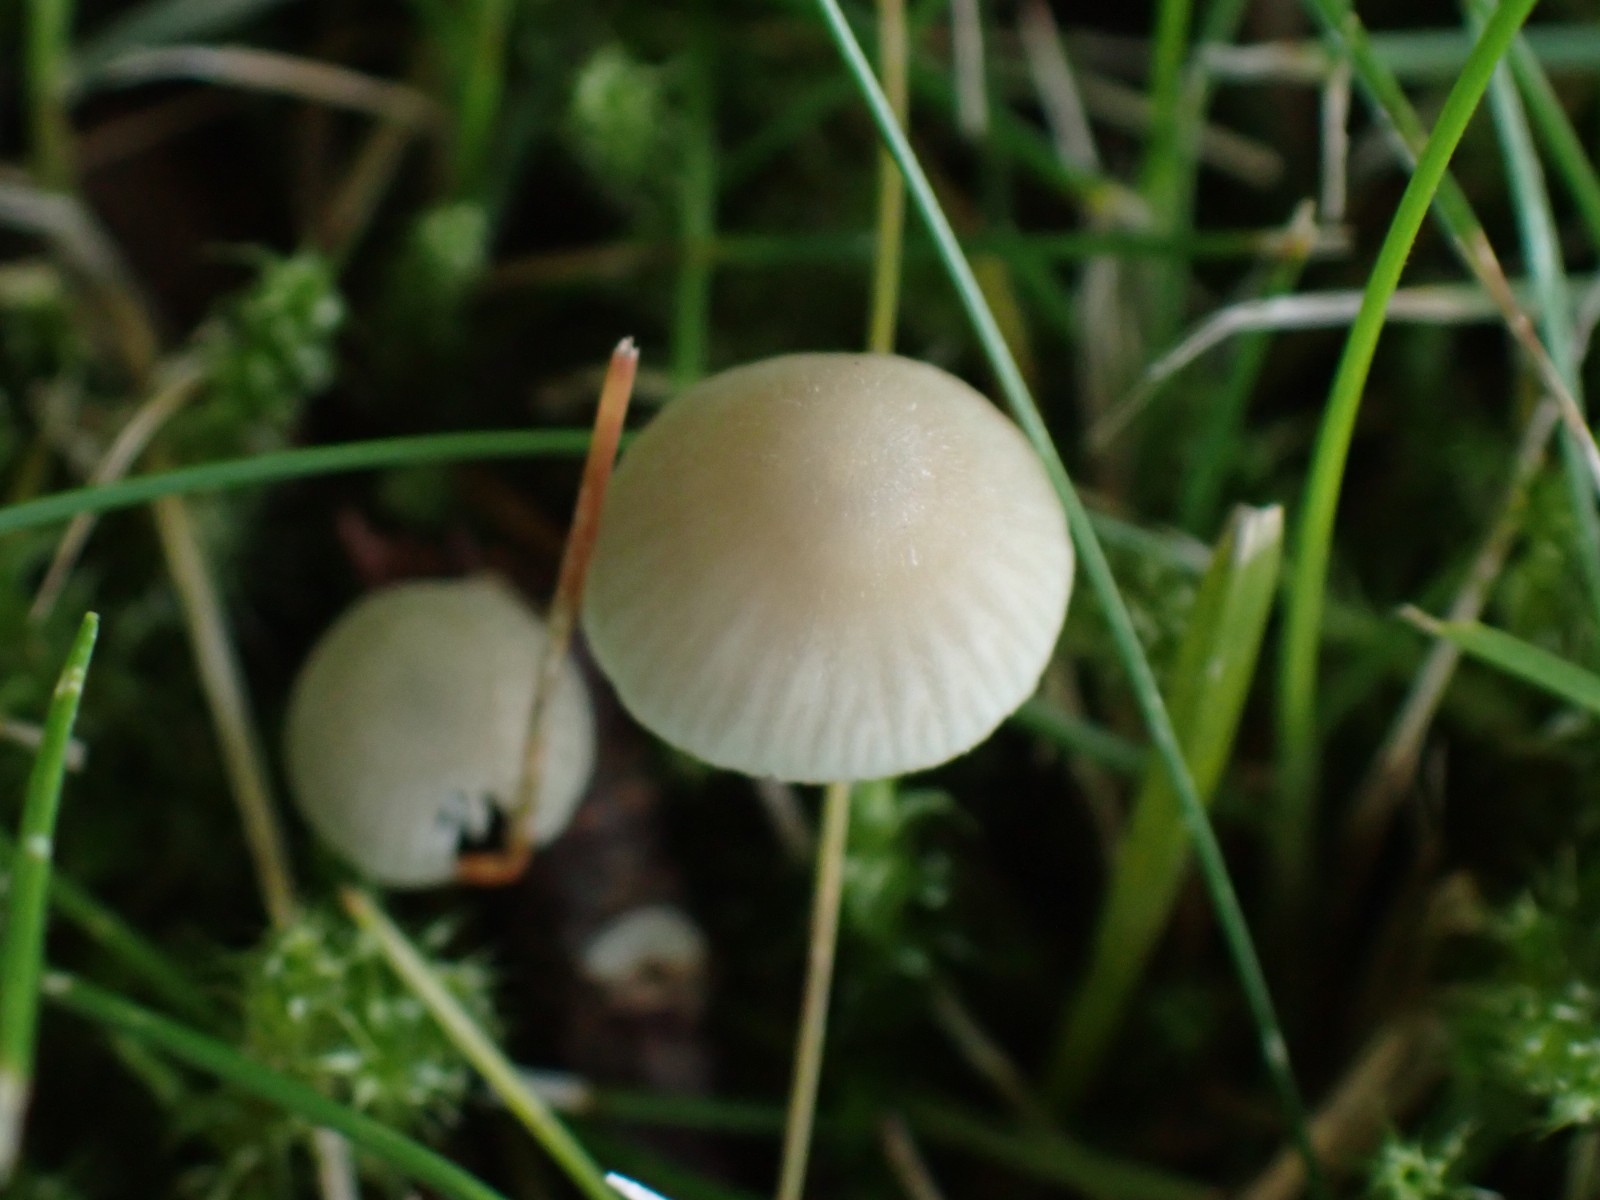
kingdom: Fungi
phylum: Basidiomycota
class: Agaricomycetes
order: Agaricales
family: Mycenaceae
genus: Mycena
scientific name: Mycena flavescens
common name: grågul huesvamp
